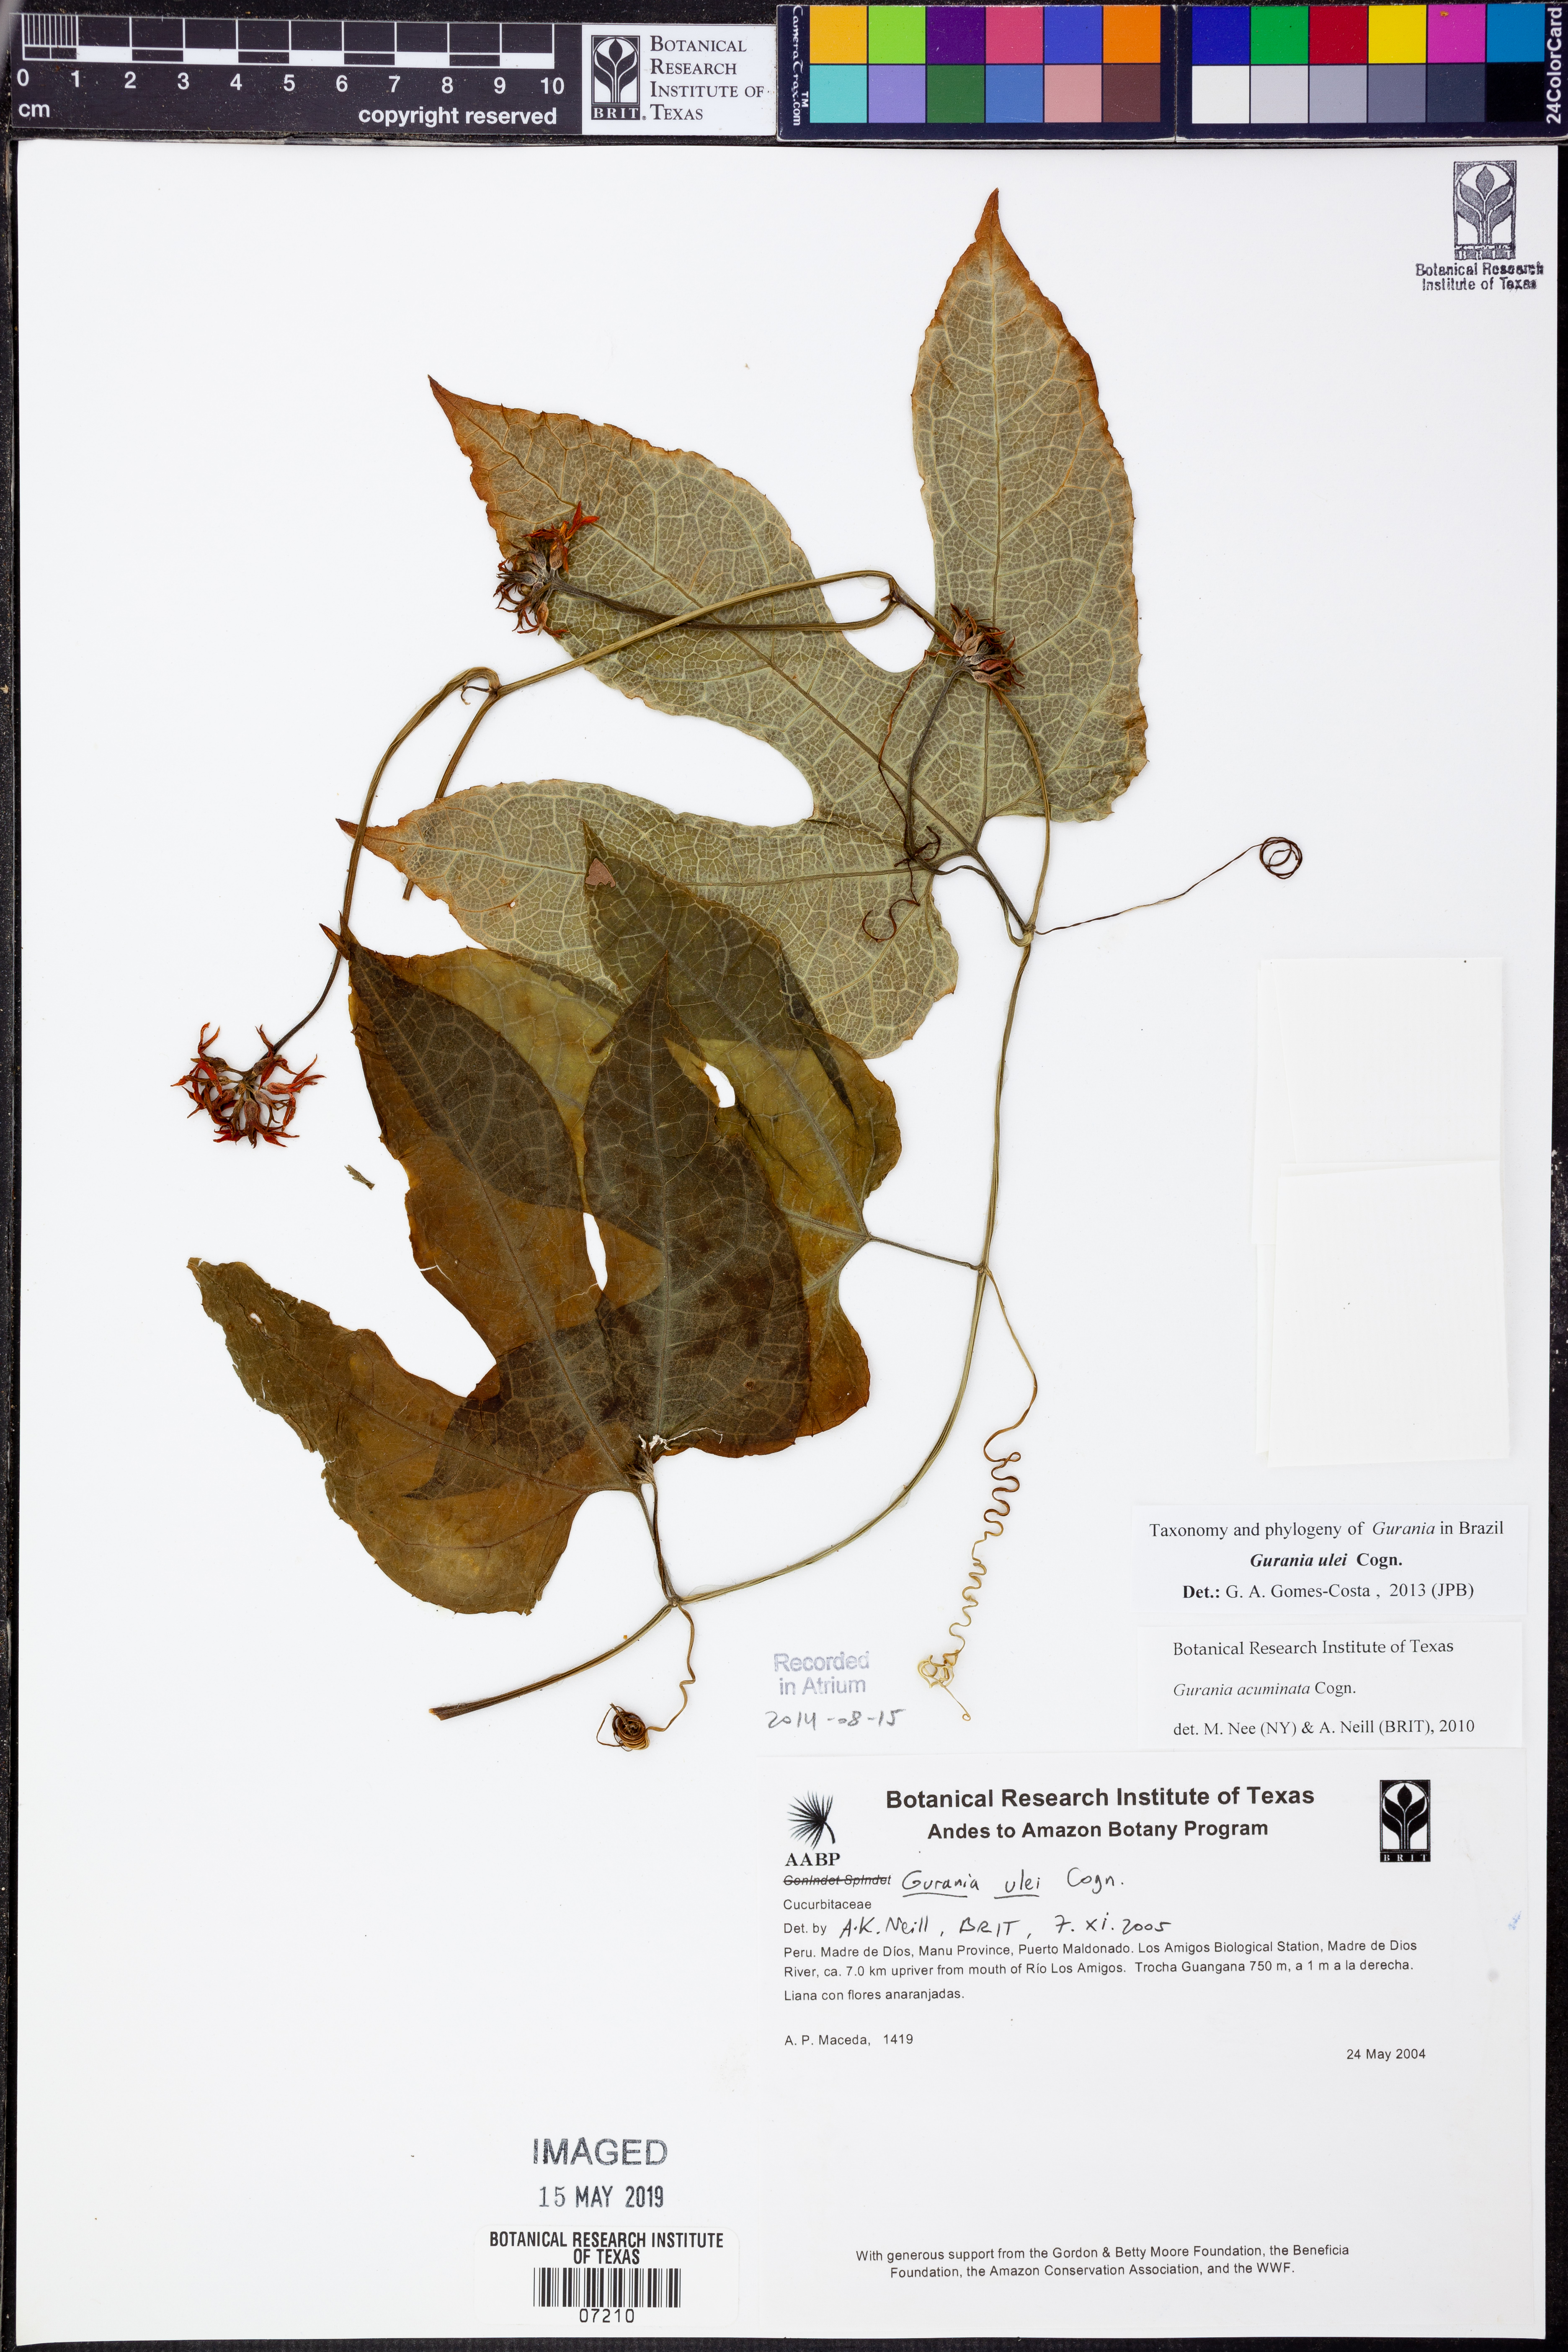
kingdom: Plantae
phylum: Tracheophyta
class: Magnoliopsida
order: Cucurbitales
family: Cucurbitaceae
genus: Gurania
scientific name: Gurania
